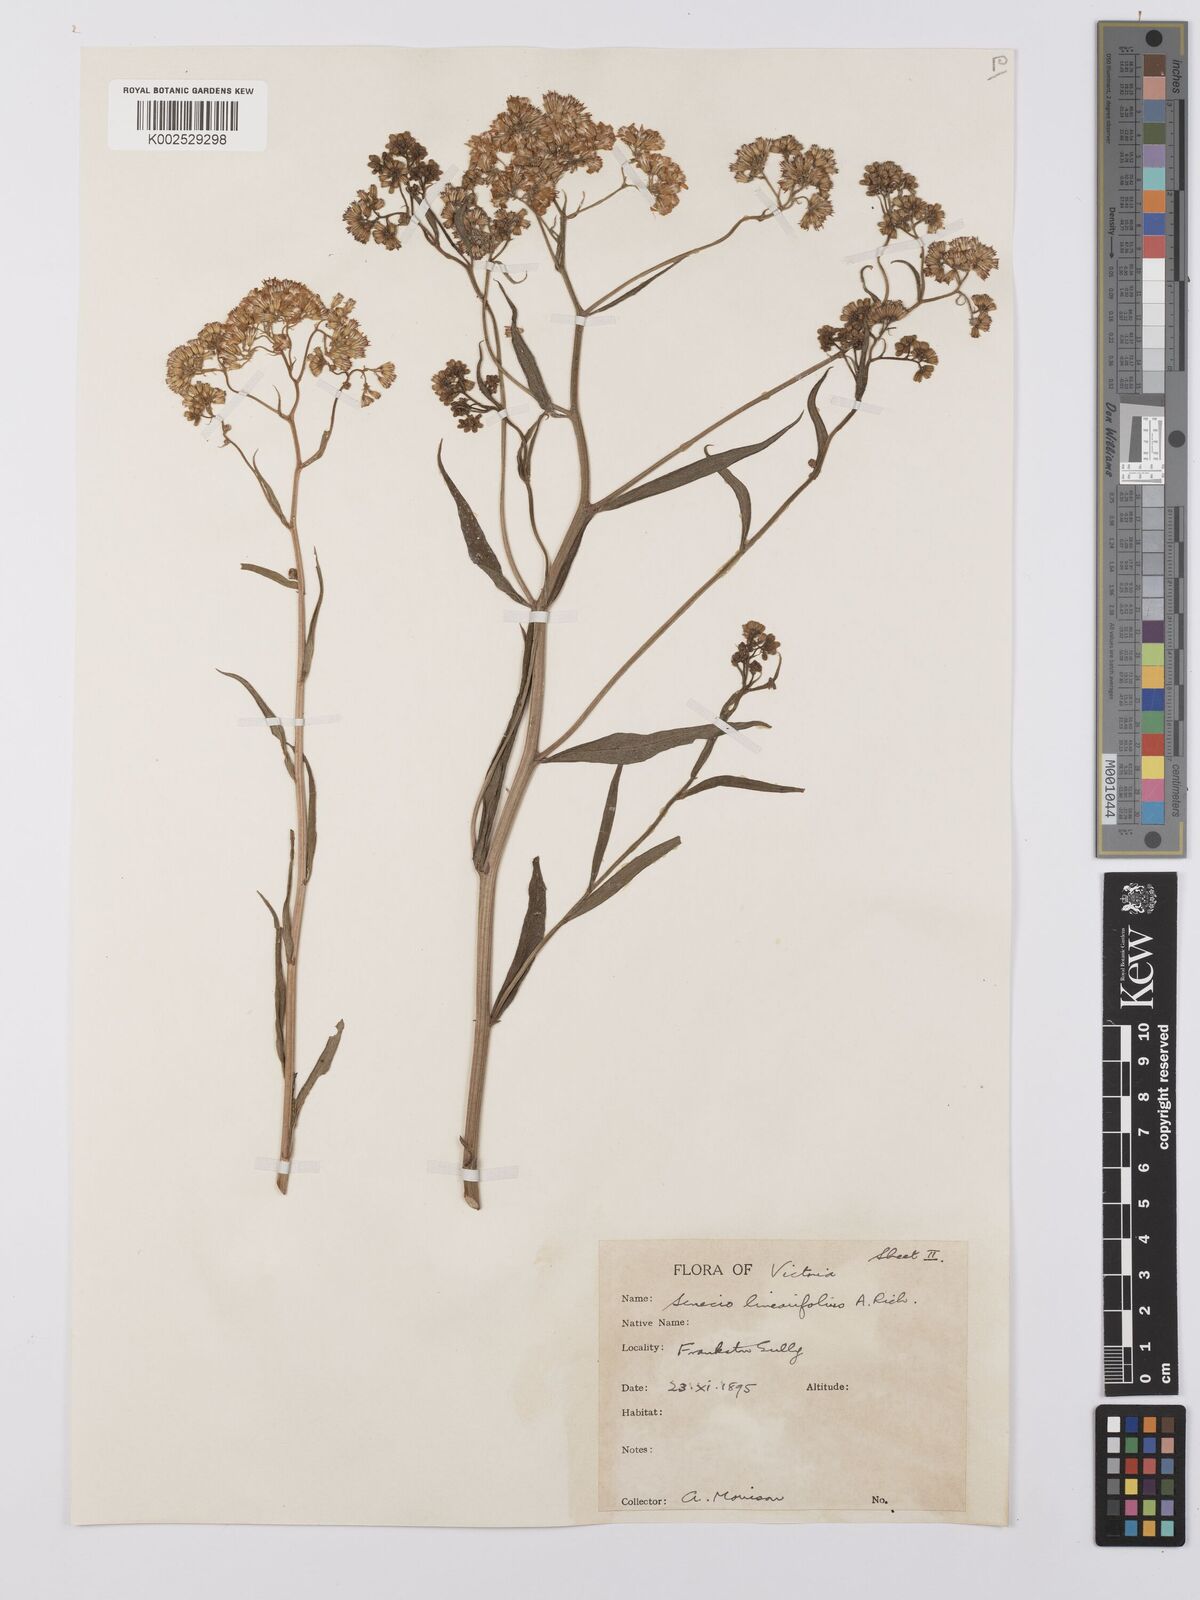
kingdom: Plantae
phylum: Tracheophyta
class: Magnoliopsida
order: Asterales
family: Asteraceae
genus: Senecio
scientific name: Senecio
